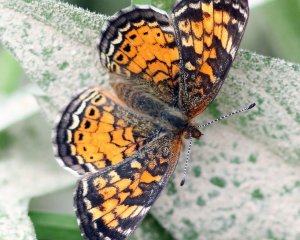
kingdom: Animalia
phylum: Arthropoda
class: Insecta
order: Lepidoptera
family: Nymphalidae
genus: Phyciodes
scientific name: Phyciodes tharos
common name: Pearl Crescent
